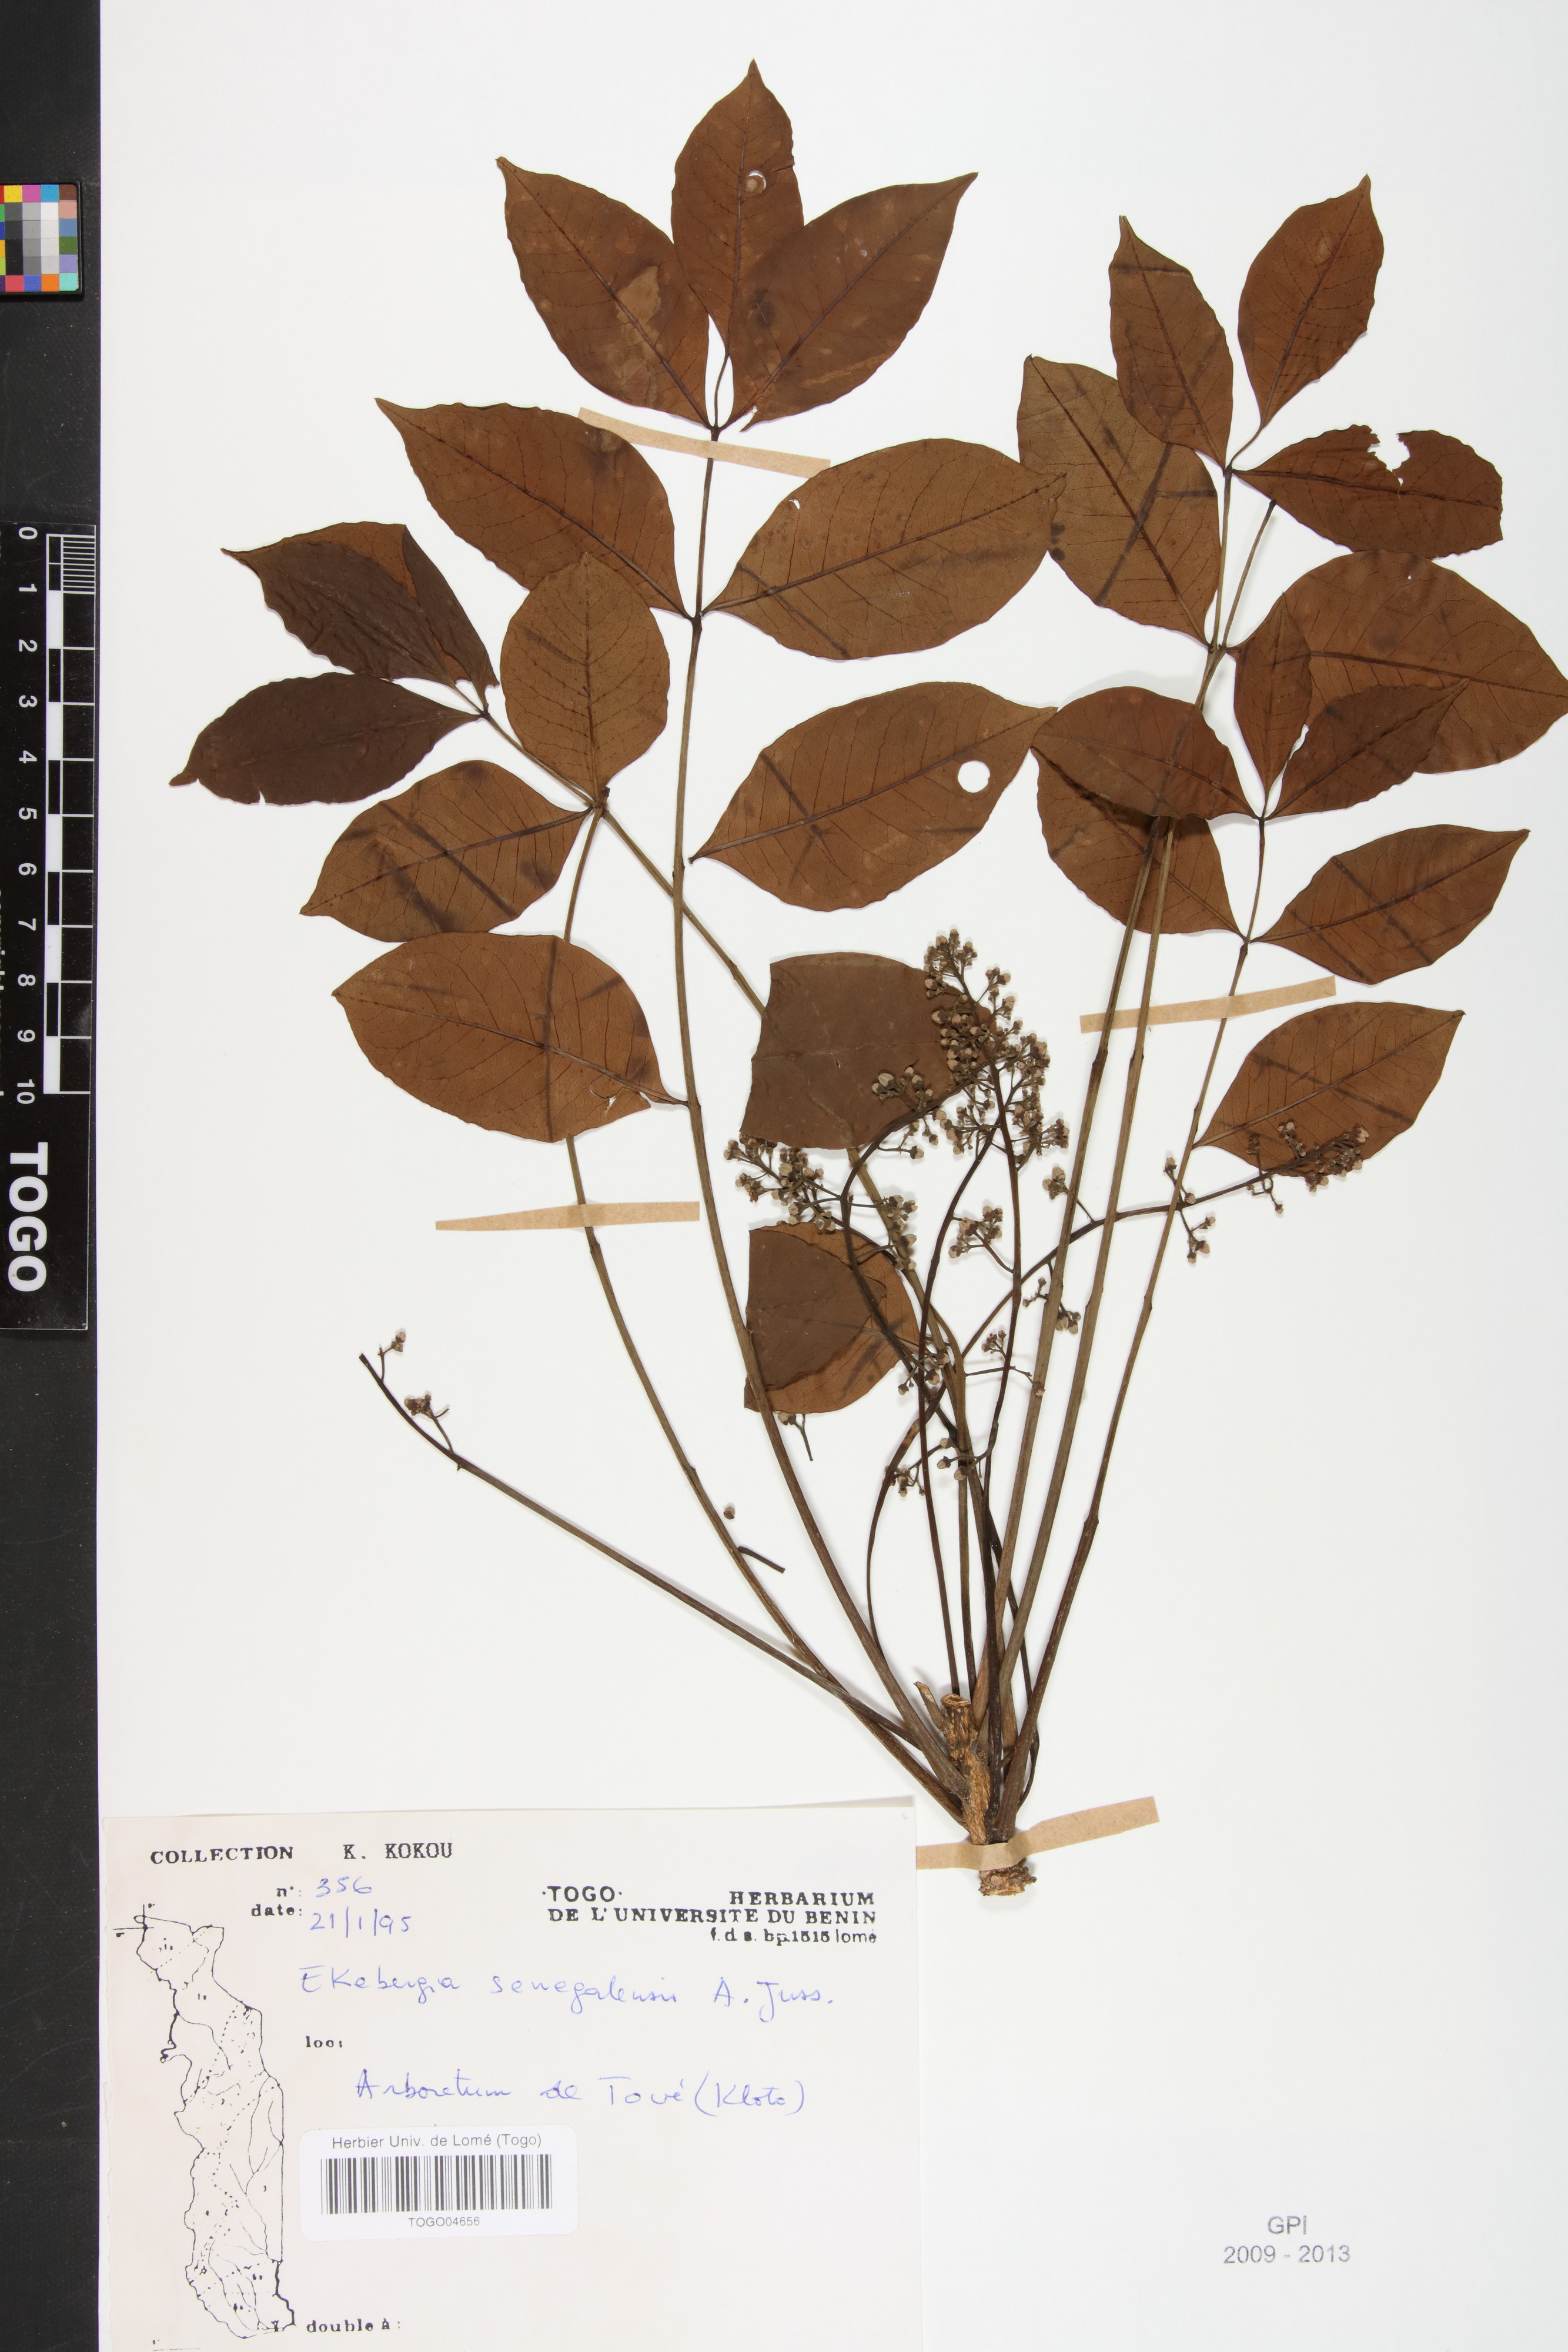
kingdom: Plantae
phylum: Tracheophyta
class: Magnoliopsida
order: Sapindales
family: Meliaceae
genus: Ekebergia
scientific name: Ekebergia capensis
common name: Cape-ash
